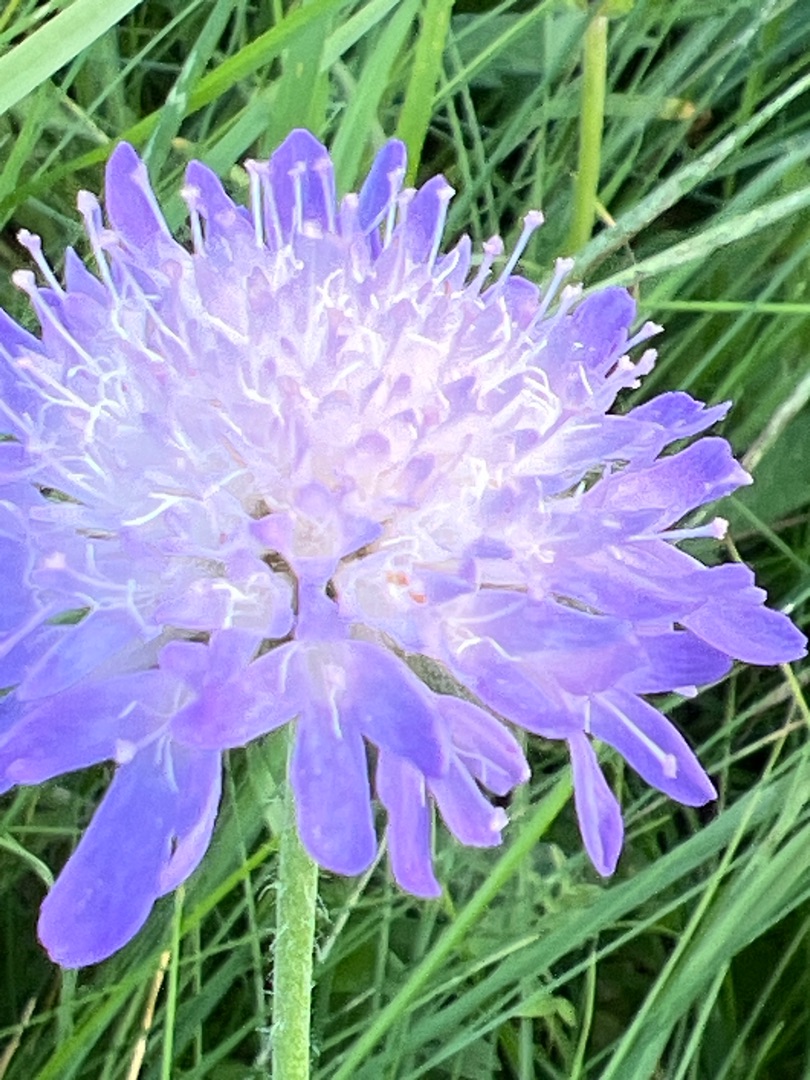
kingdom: Plantae
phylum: Tracheophyta
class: Magnoliopsida
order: Dipsacales
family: Caprifoliaceae
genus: Knautia
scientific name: Knautia arvensis
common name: Blåhat
